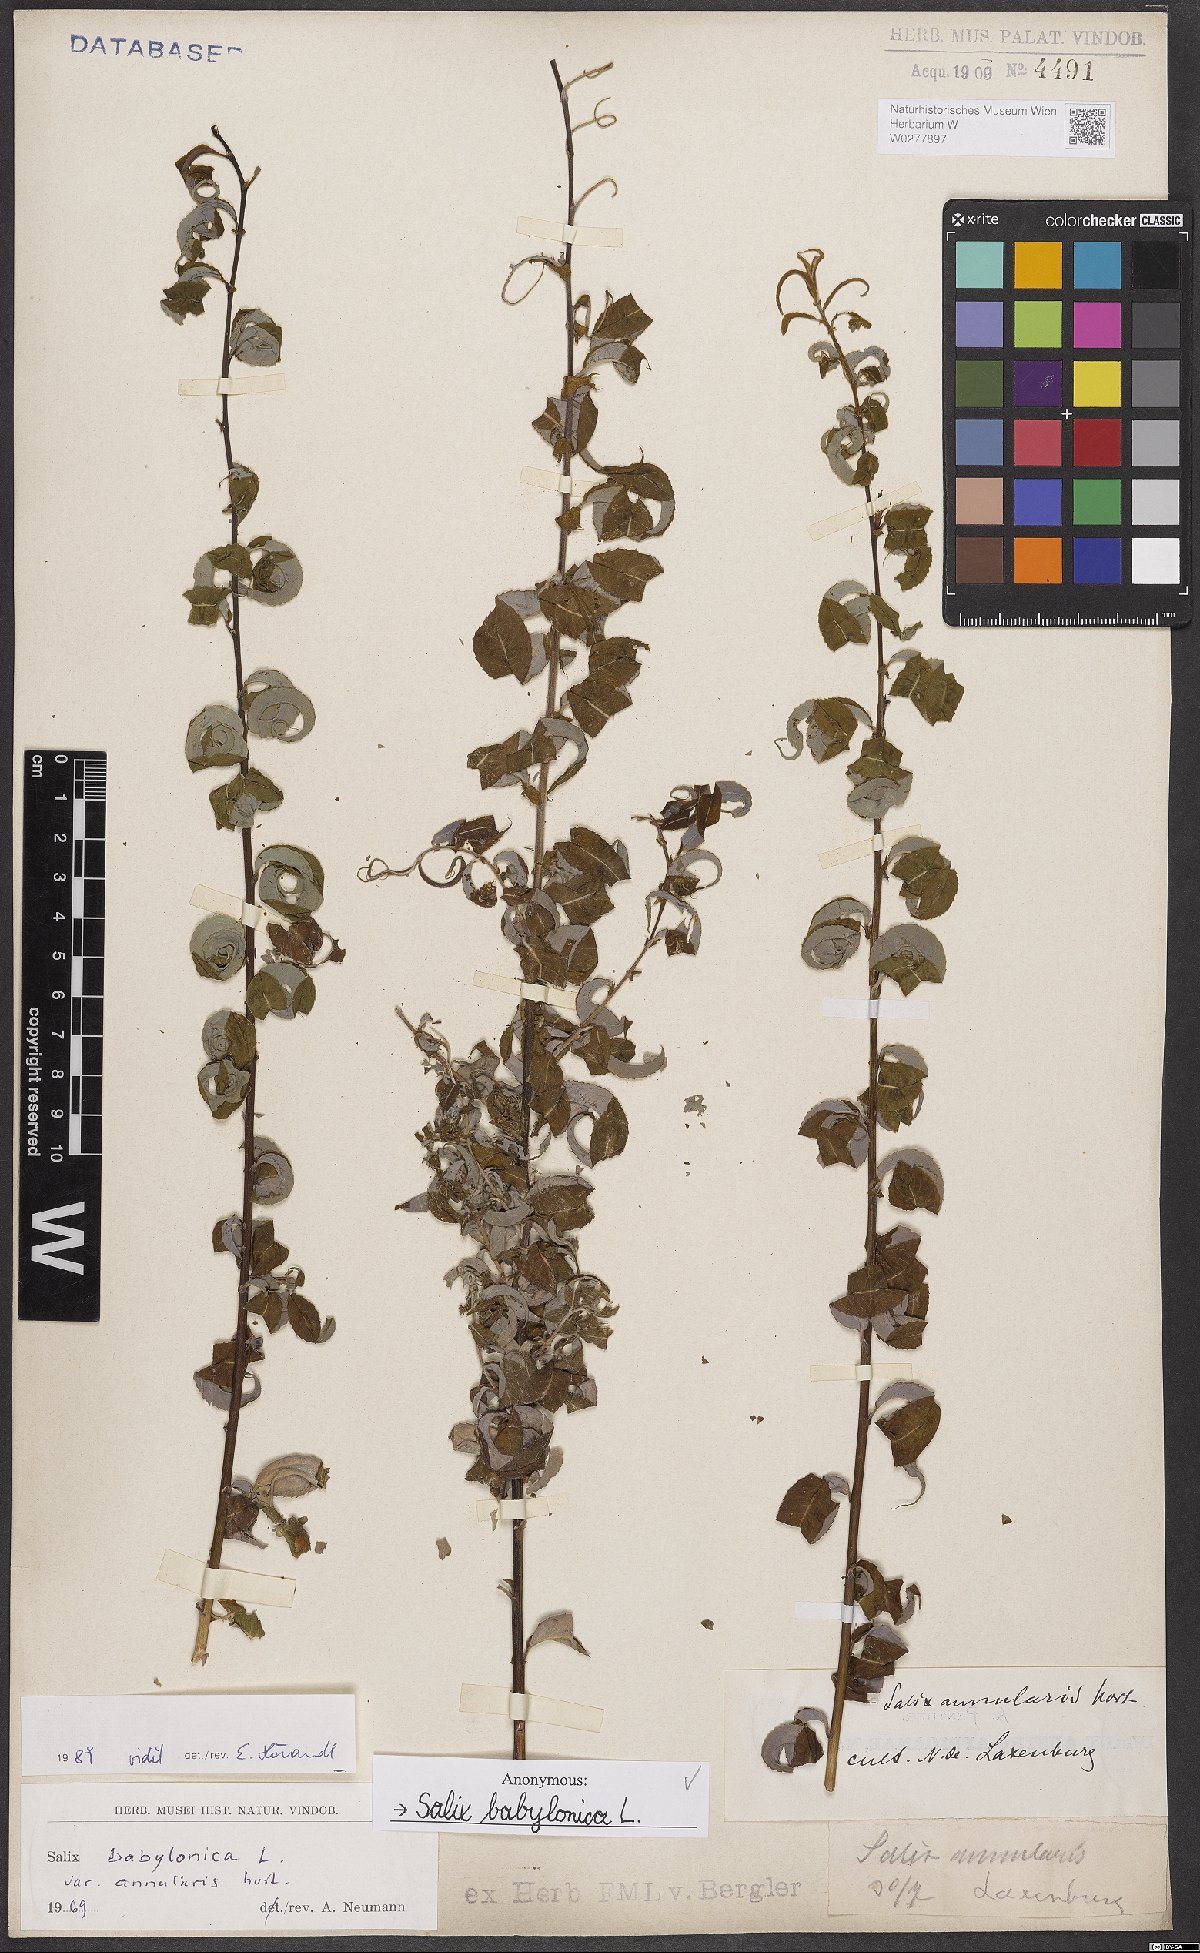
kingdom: Plantae
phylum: Tracheophyta
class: Magnoliopsida
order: Malpighiales
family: Salicaceae
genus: Salix
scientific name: Salix babylonica
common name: Weeping willow
